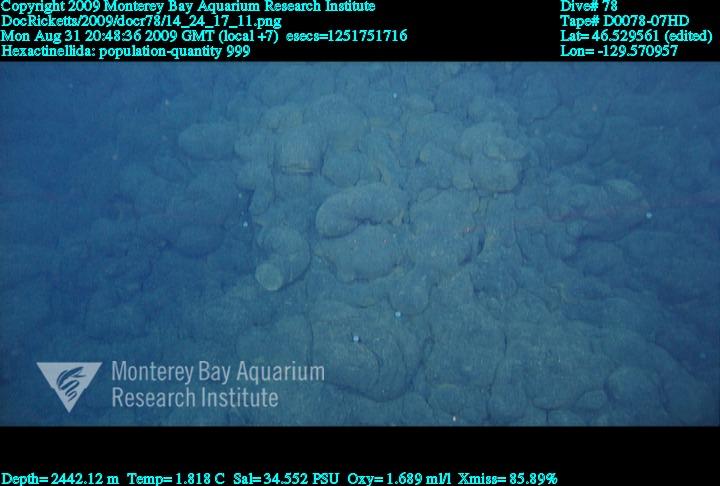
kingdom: Animalia
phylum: Porifera
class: Hexactinellida
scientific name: Hexactinellida
